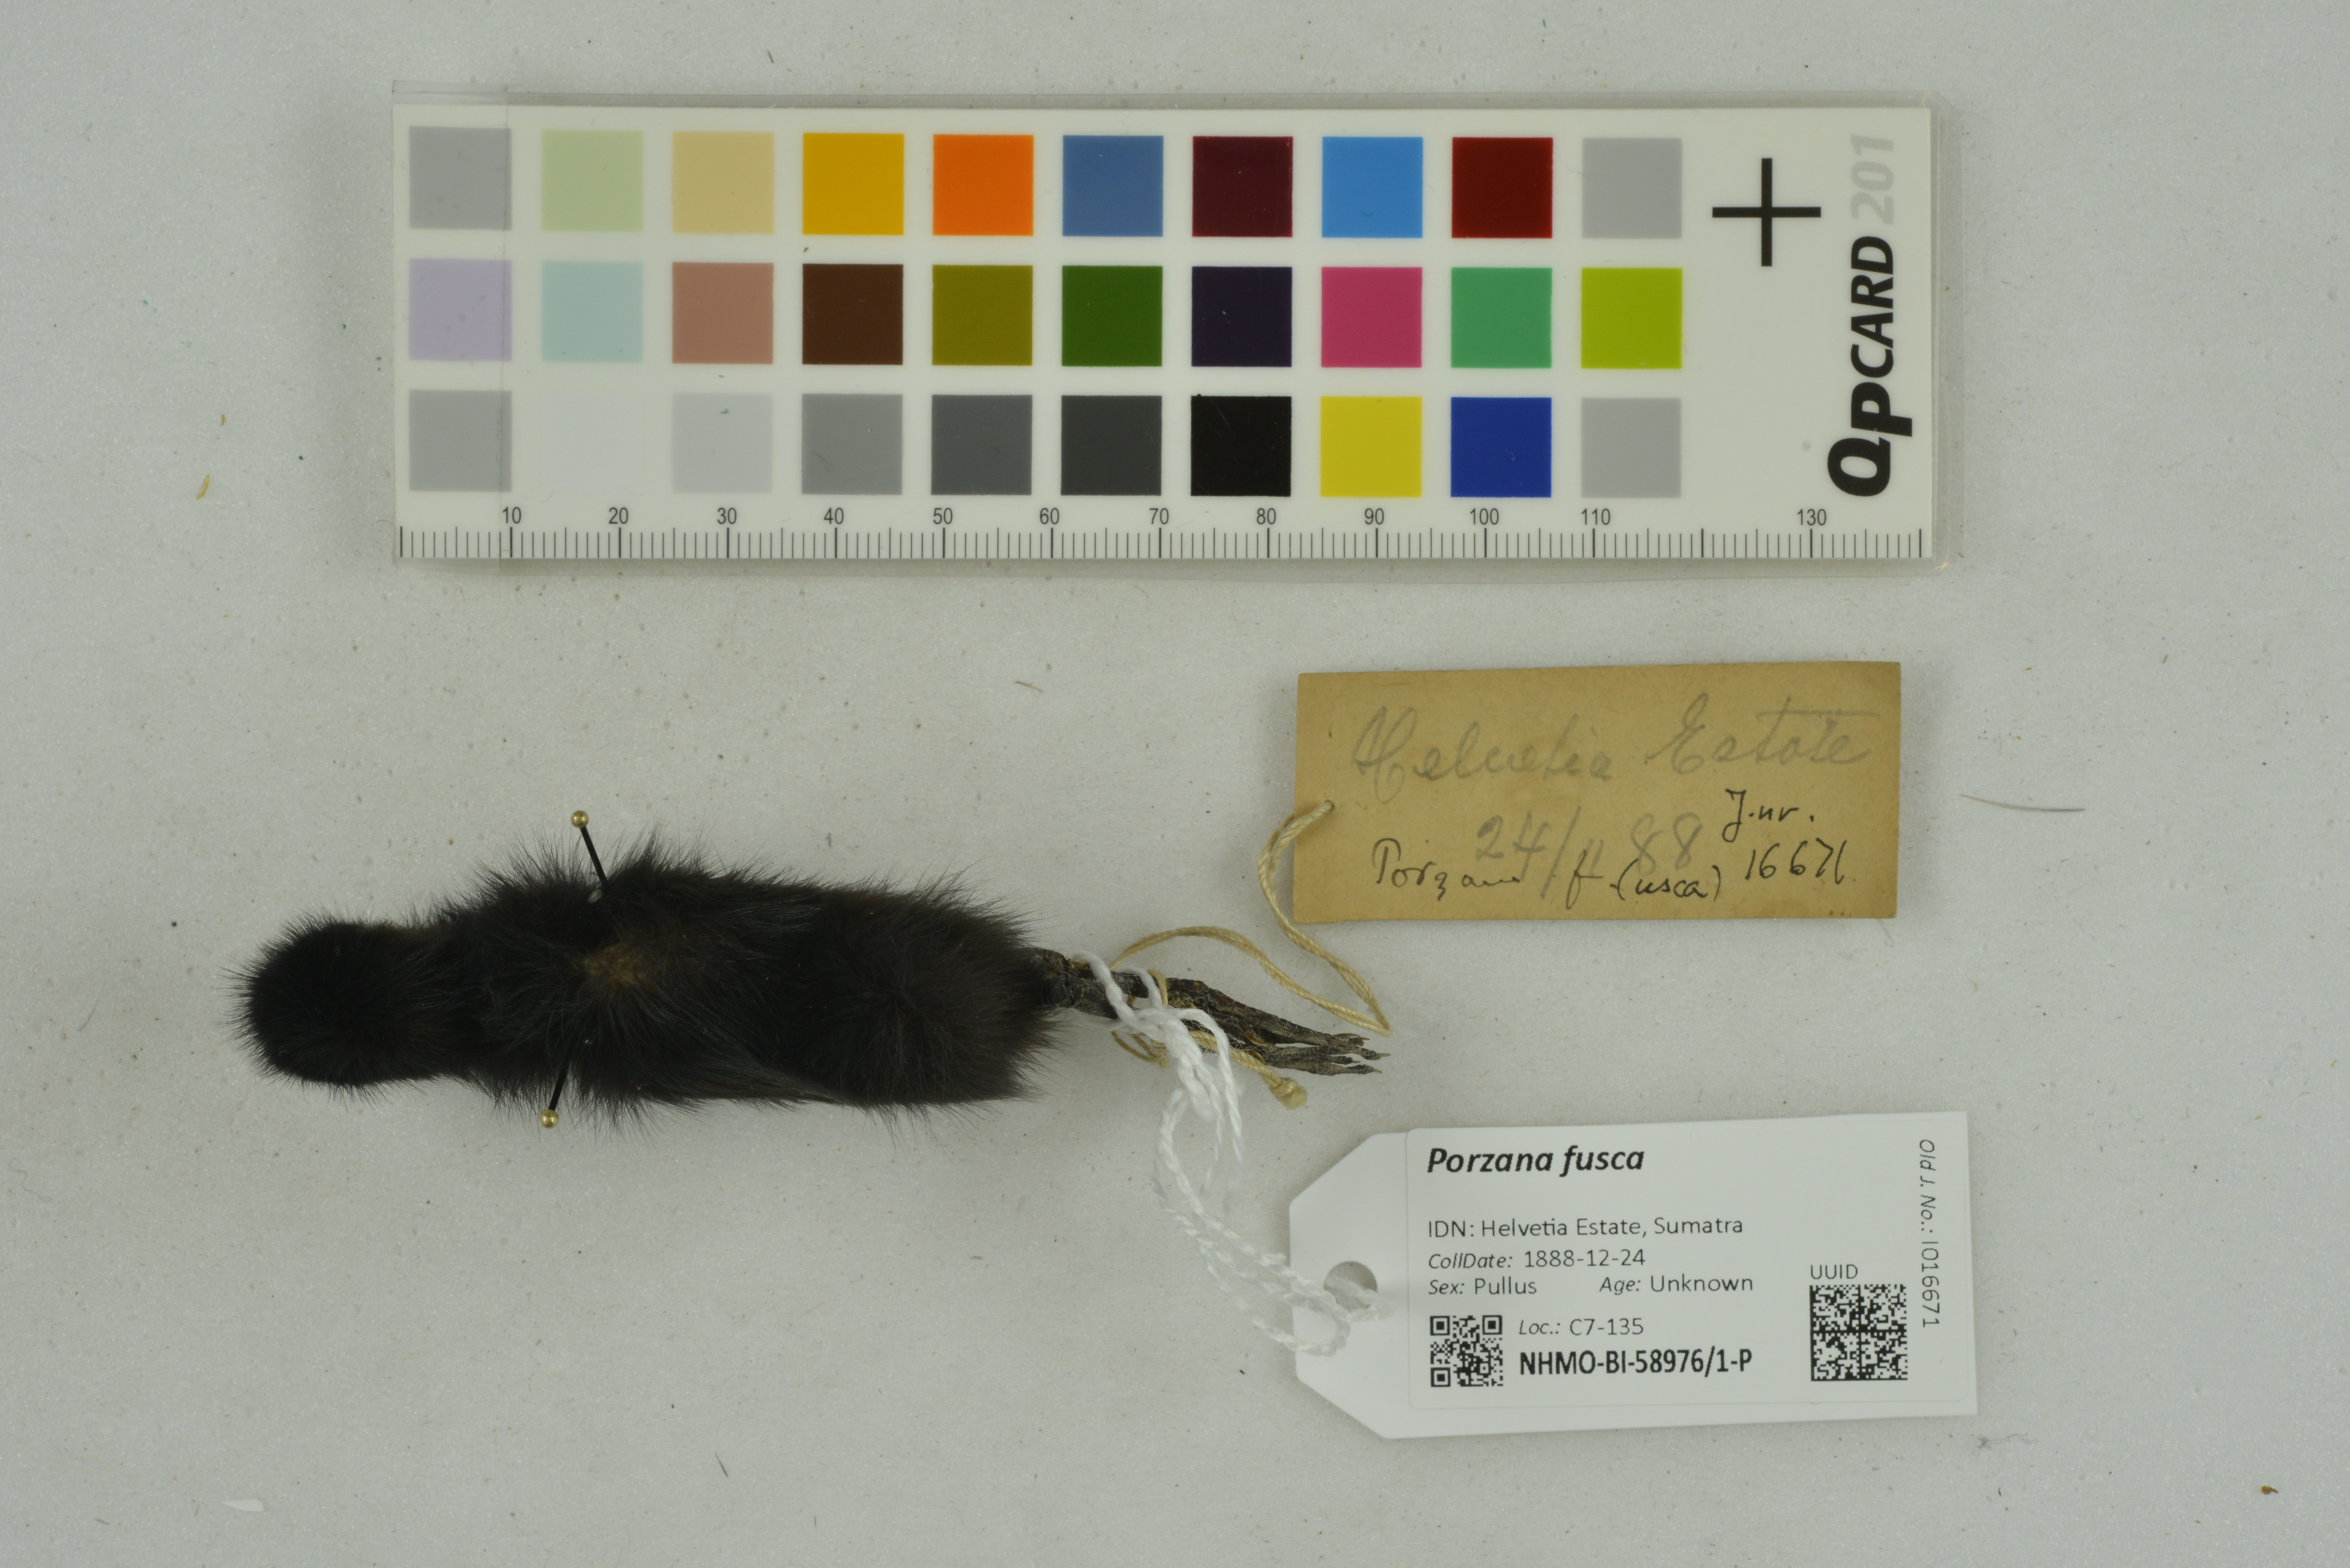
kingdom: Animalia
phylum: Chordata
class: Aves
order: Gruiformes
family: Rallidae
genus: Porzana
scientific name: Porzana fusca
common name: Ruddy-breasted crake
